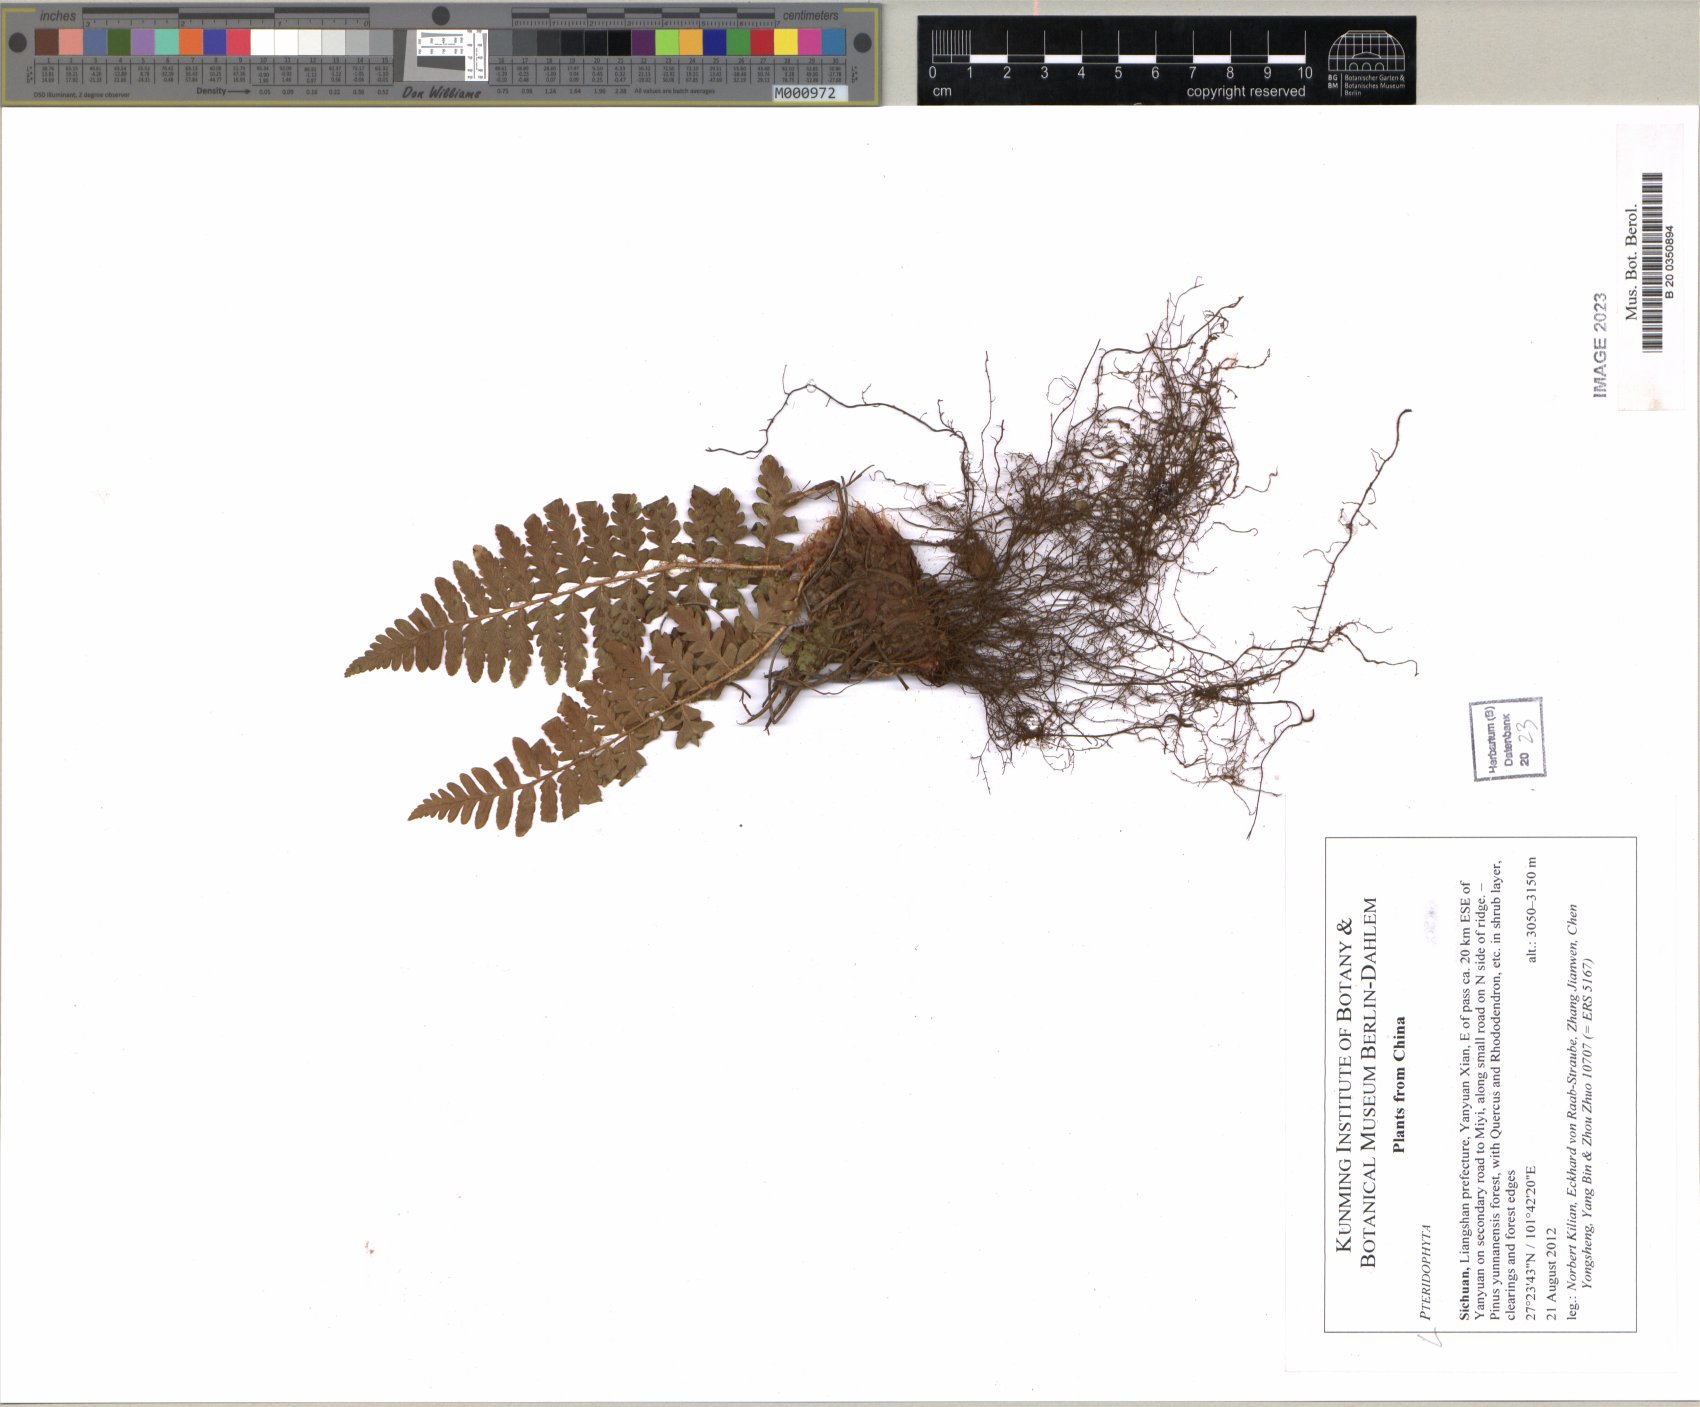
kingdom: Plantae
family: Pteridophyta
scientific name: Pteridophyta
